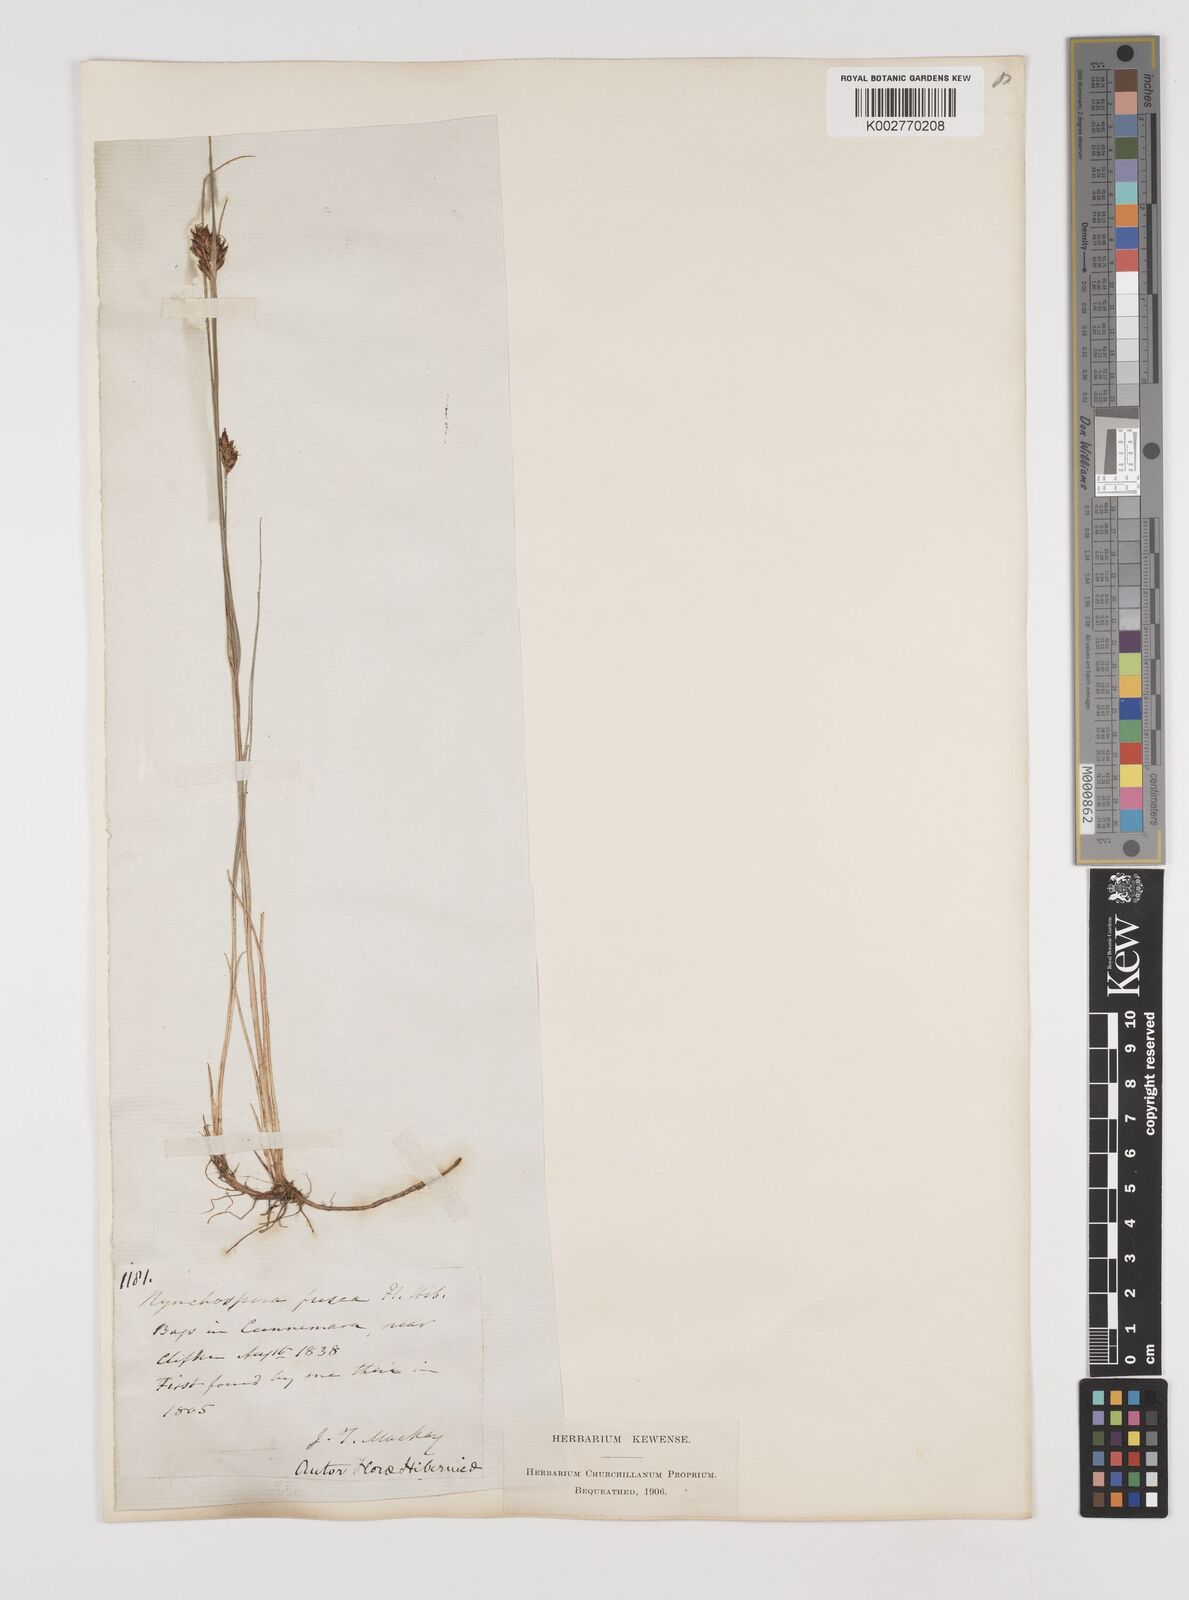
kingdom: Plantae
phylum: Tracheophyta
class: Liliopsida
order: Poales
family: Cyperaceae
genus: Rhynchospora
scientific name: Rhynchospora fusca
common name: Brown beak-sedge
